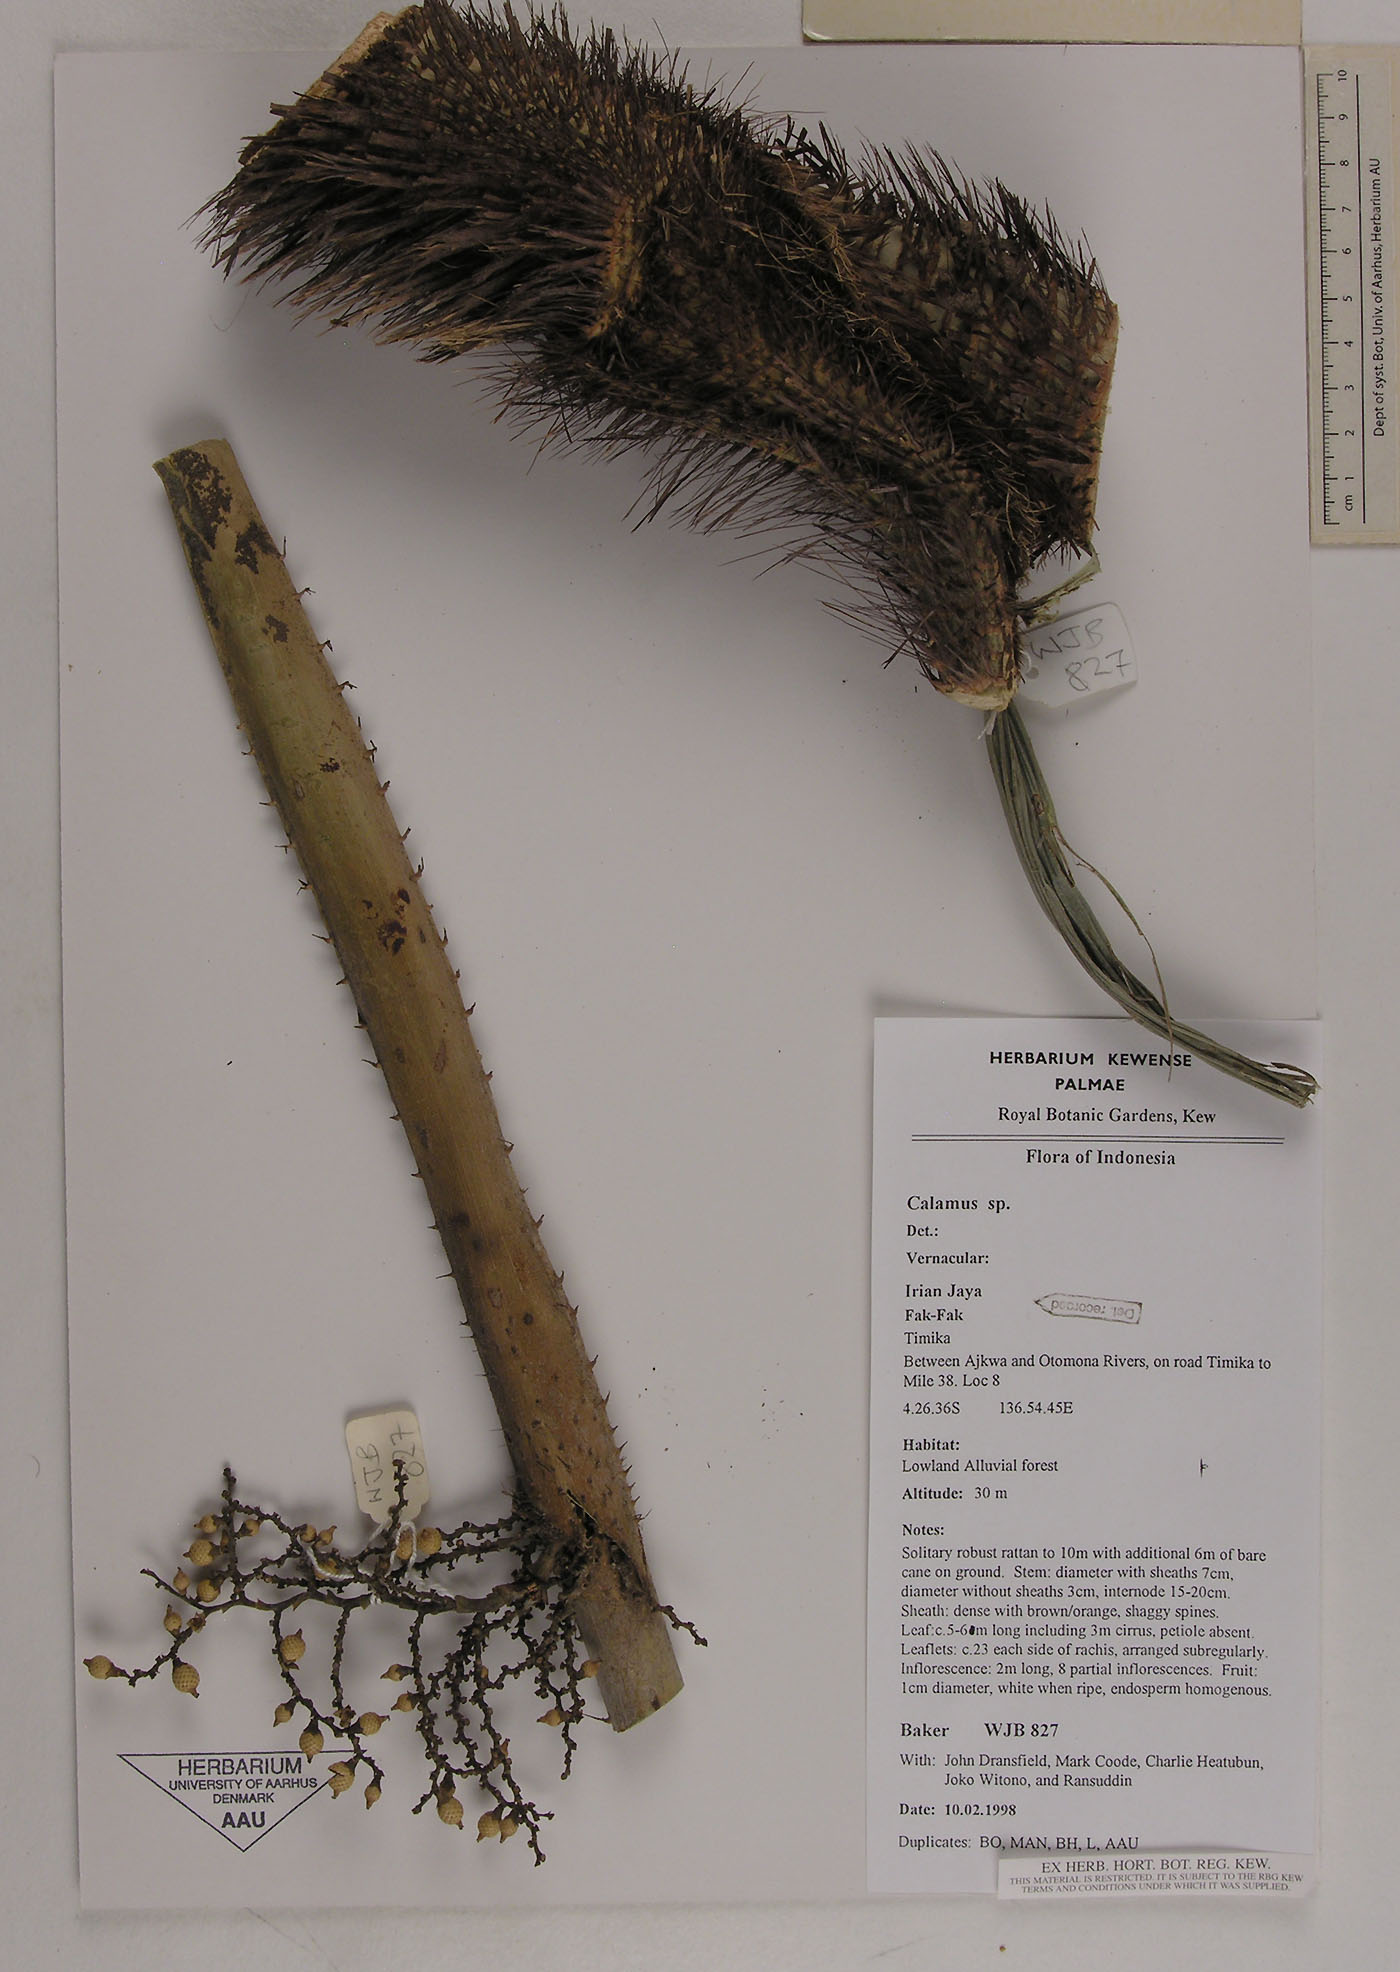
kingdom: Plantae
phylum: Tracheophyta
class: Liliopsida
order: Arecales
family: Arecaceae
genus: Calamus
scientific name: Calamus dasyacanthus
